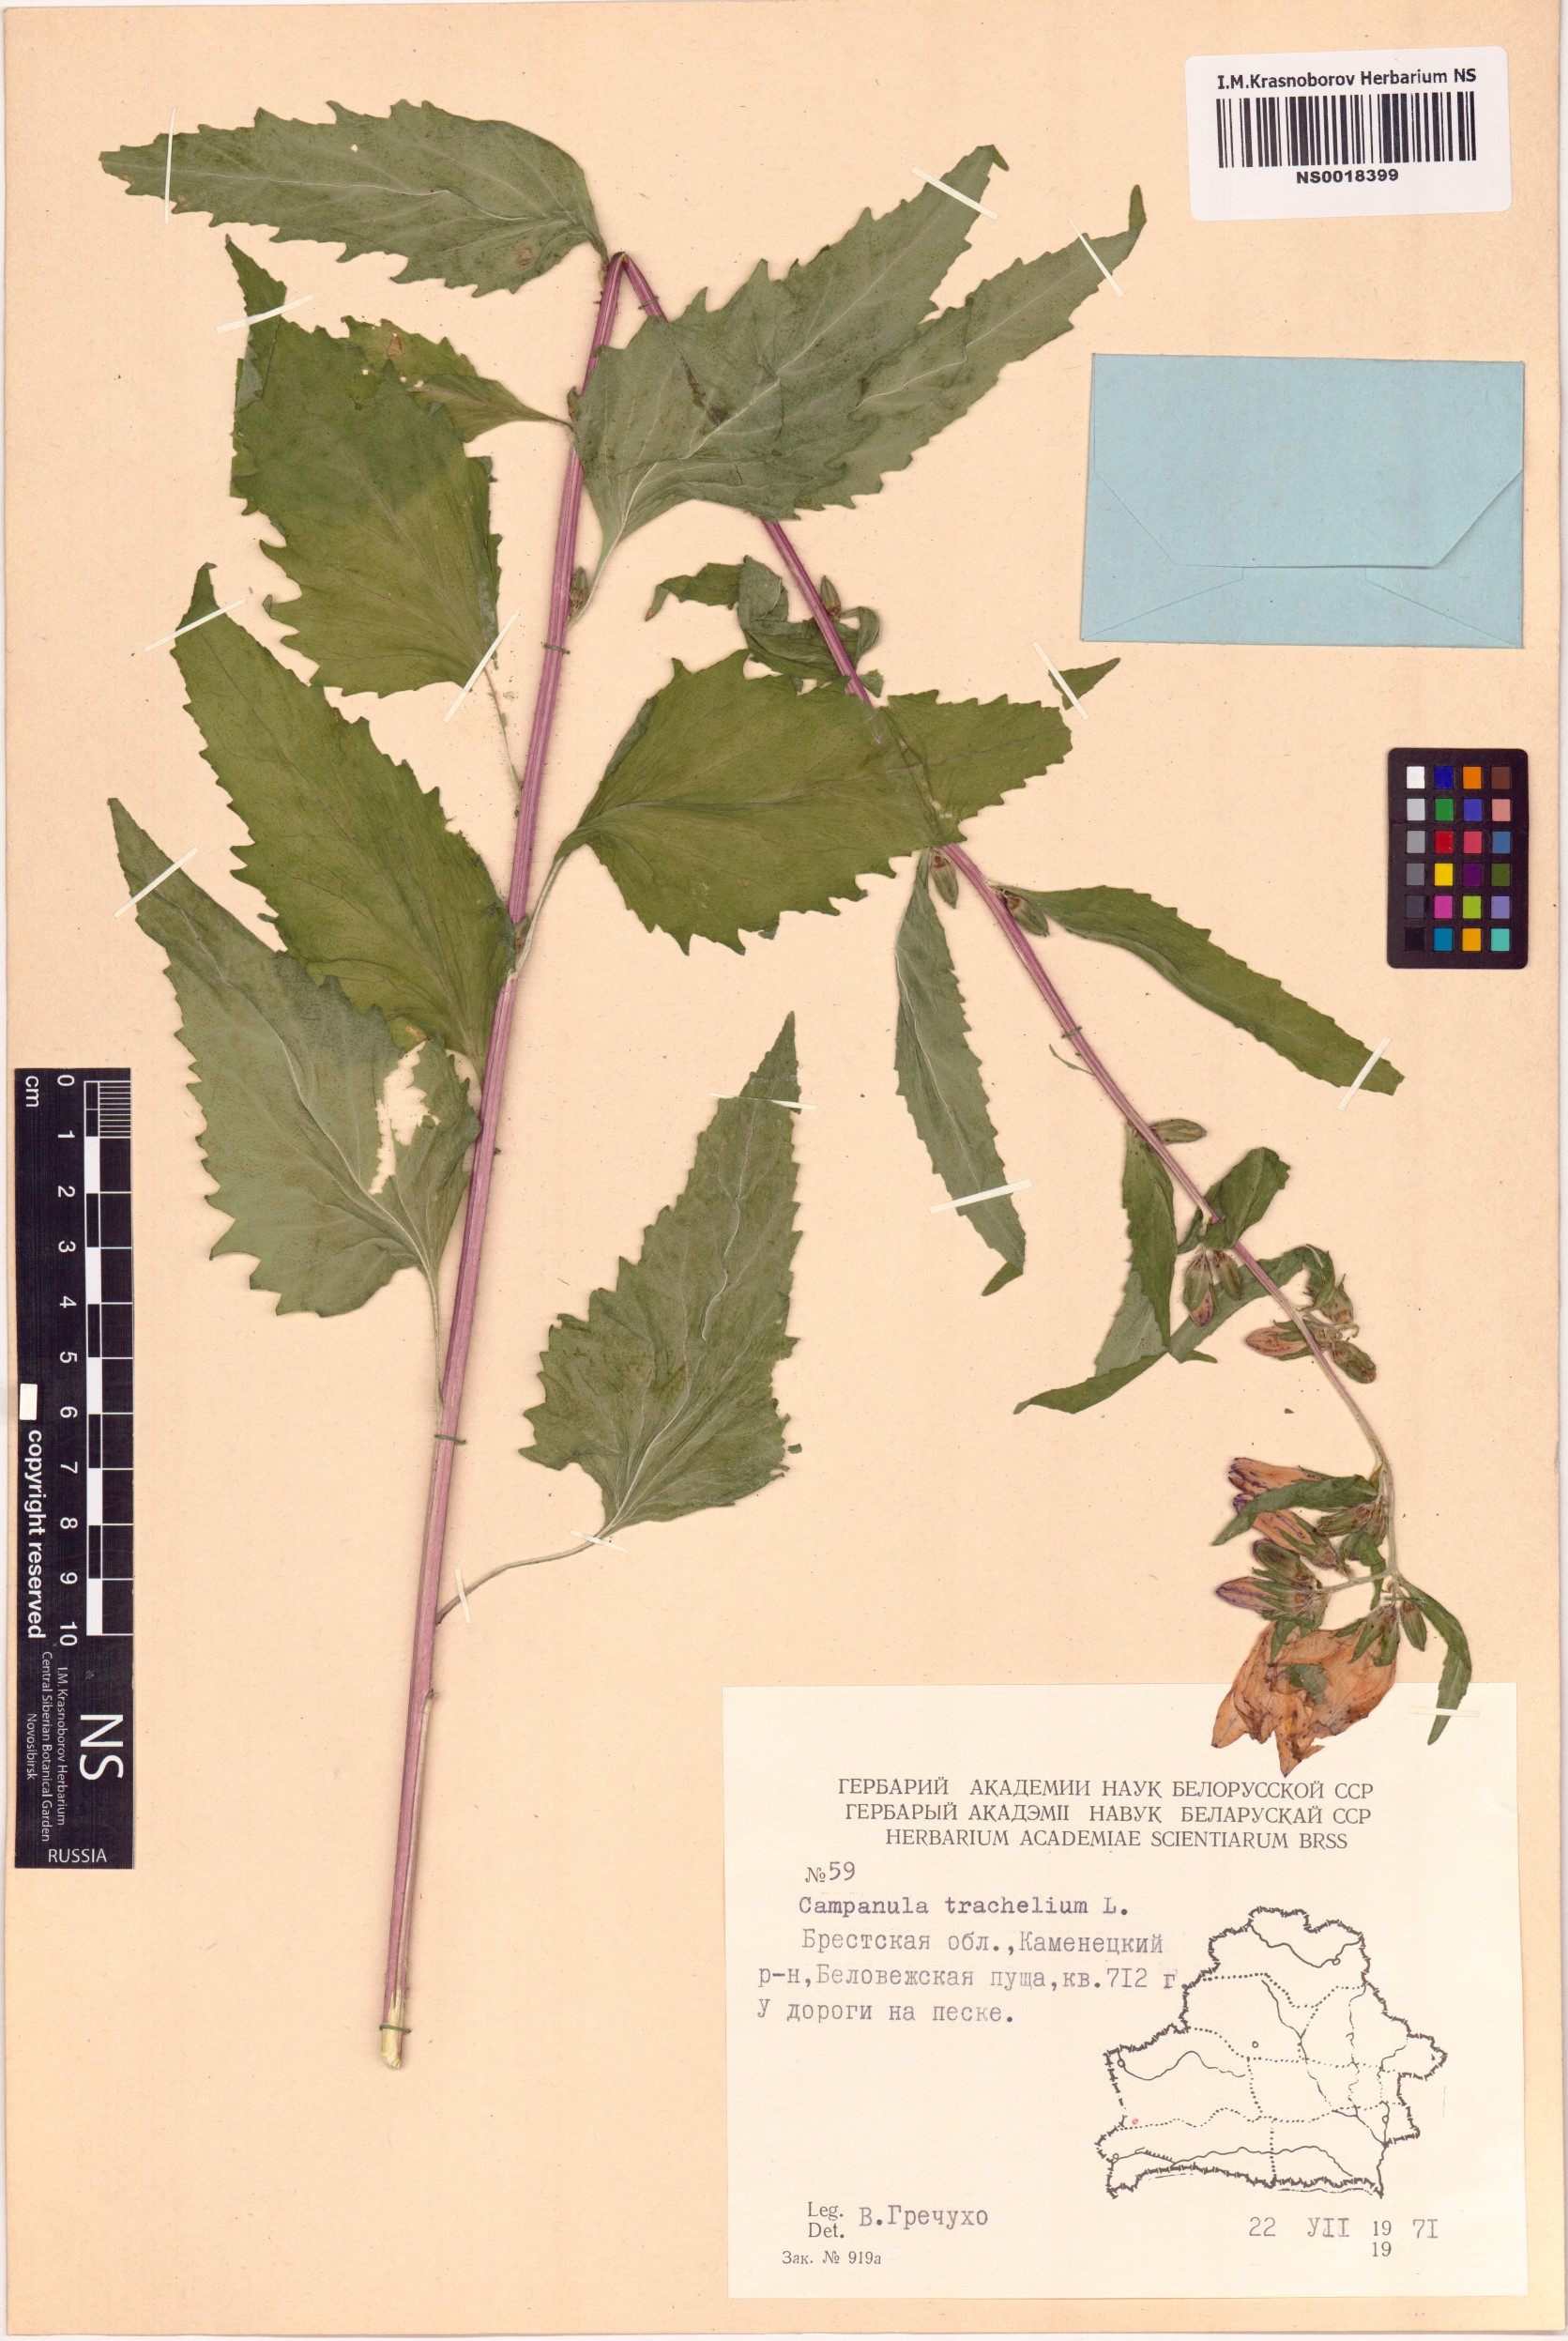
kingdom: Plantae
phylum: Tracheophyta
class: Magnoliopsida
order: Asterales
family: Campanulaceae
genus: Campanula
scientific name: Campanula trachelium
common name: Nettle-leaved bellflower
